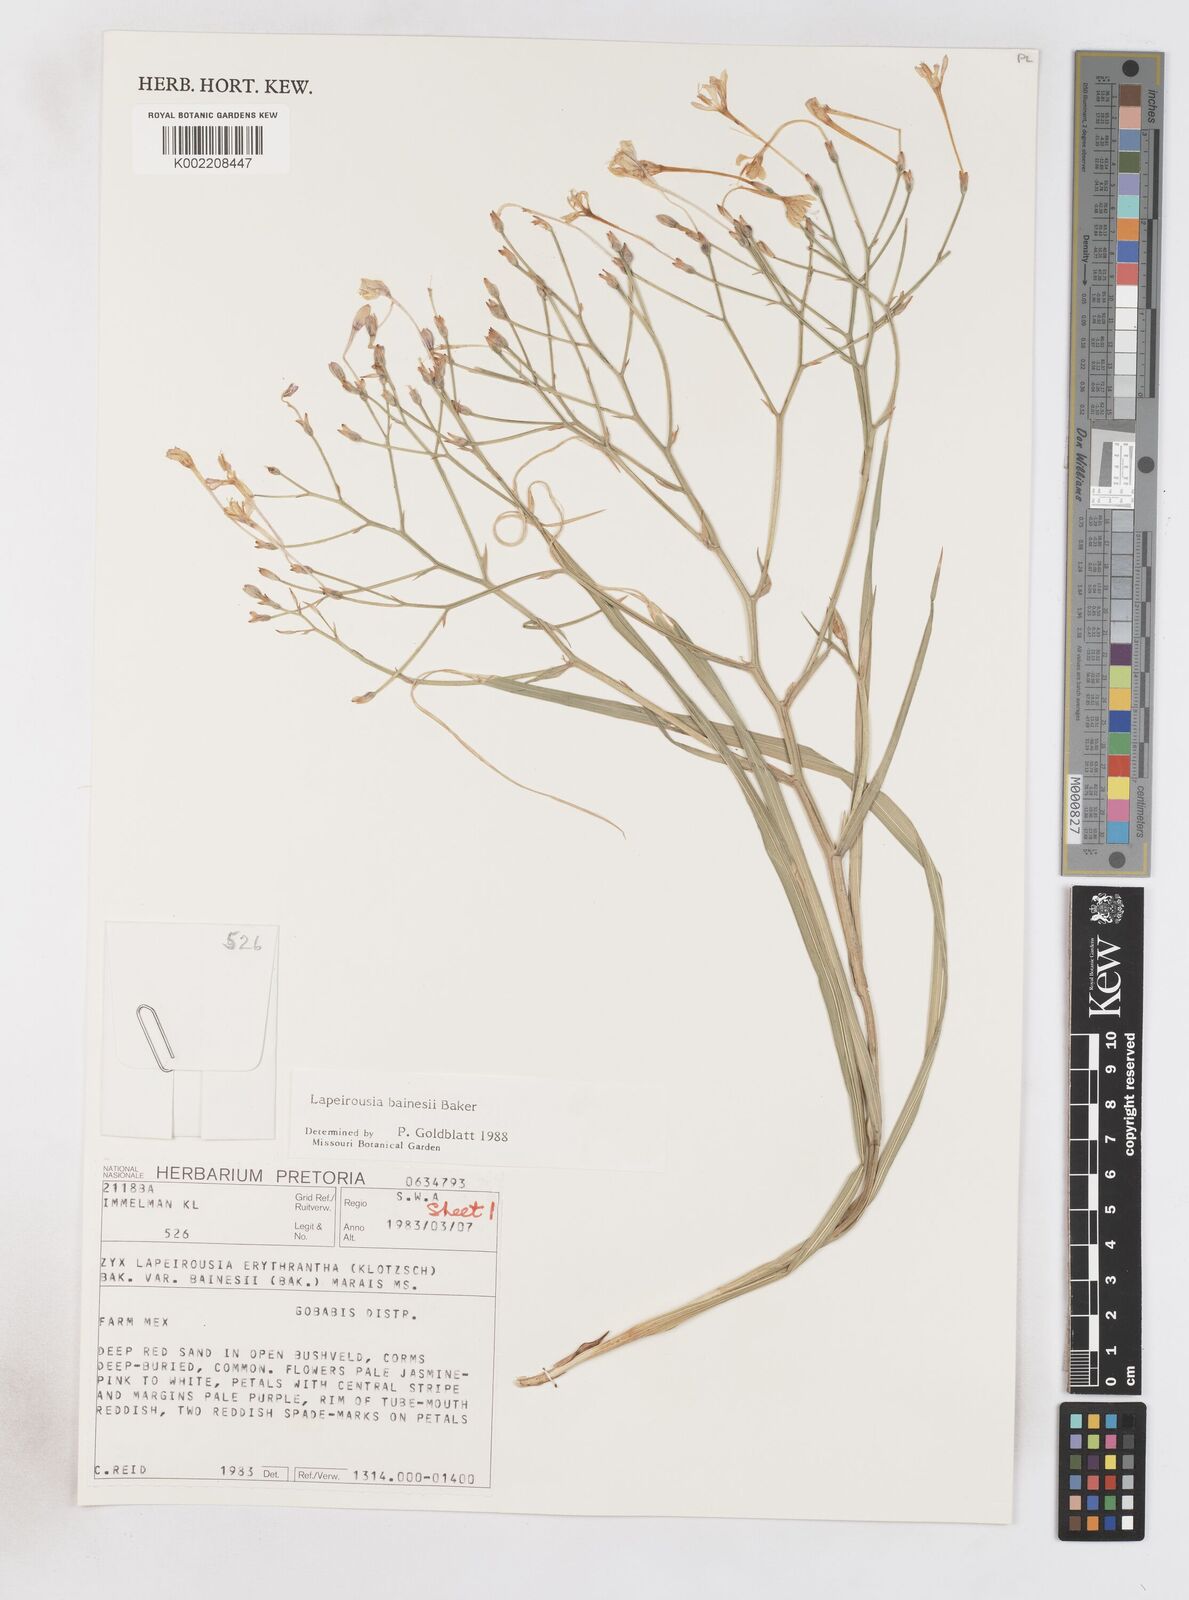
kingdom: Plantae
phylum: Tracheophyta
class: Liliopsida
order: Asparagales
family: Iridaceae
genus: Afrosolen
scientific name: Afrosolen erythranthus
